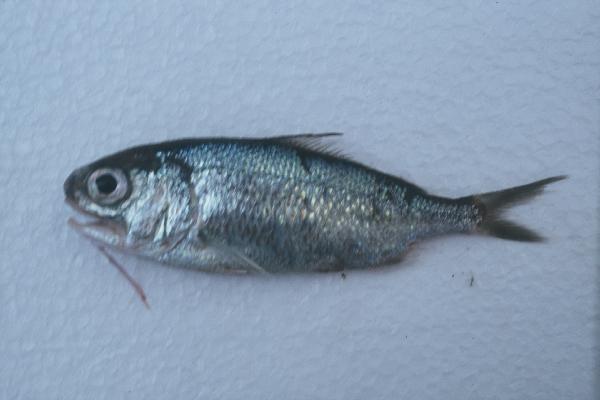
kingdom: Animalia
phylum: Chordata
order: Polymixiiformes
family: Polymixiidae
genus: Polymixia
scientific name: Polymixia berndti
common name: Berndt’s beardfish
